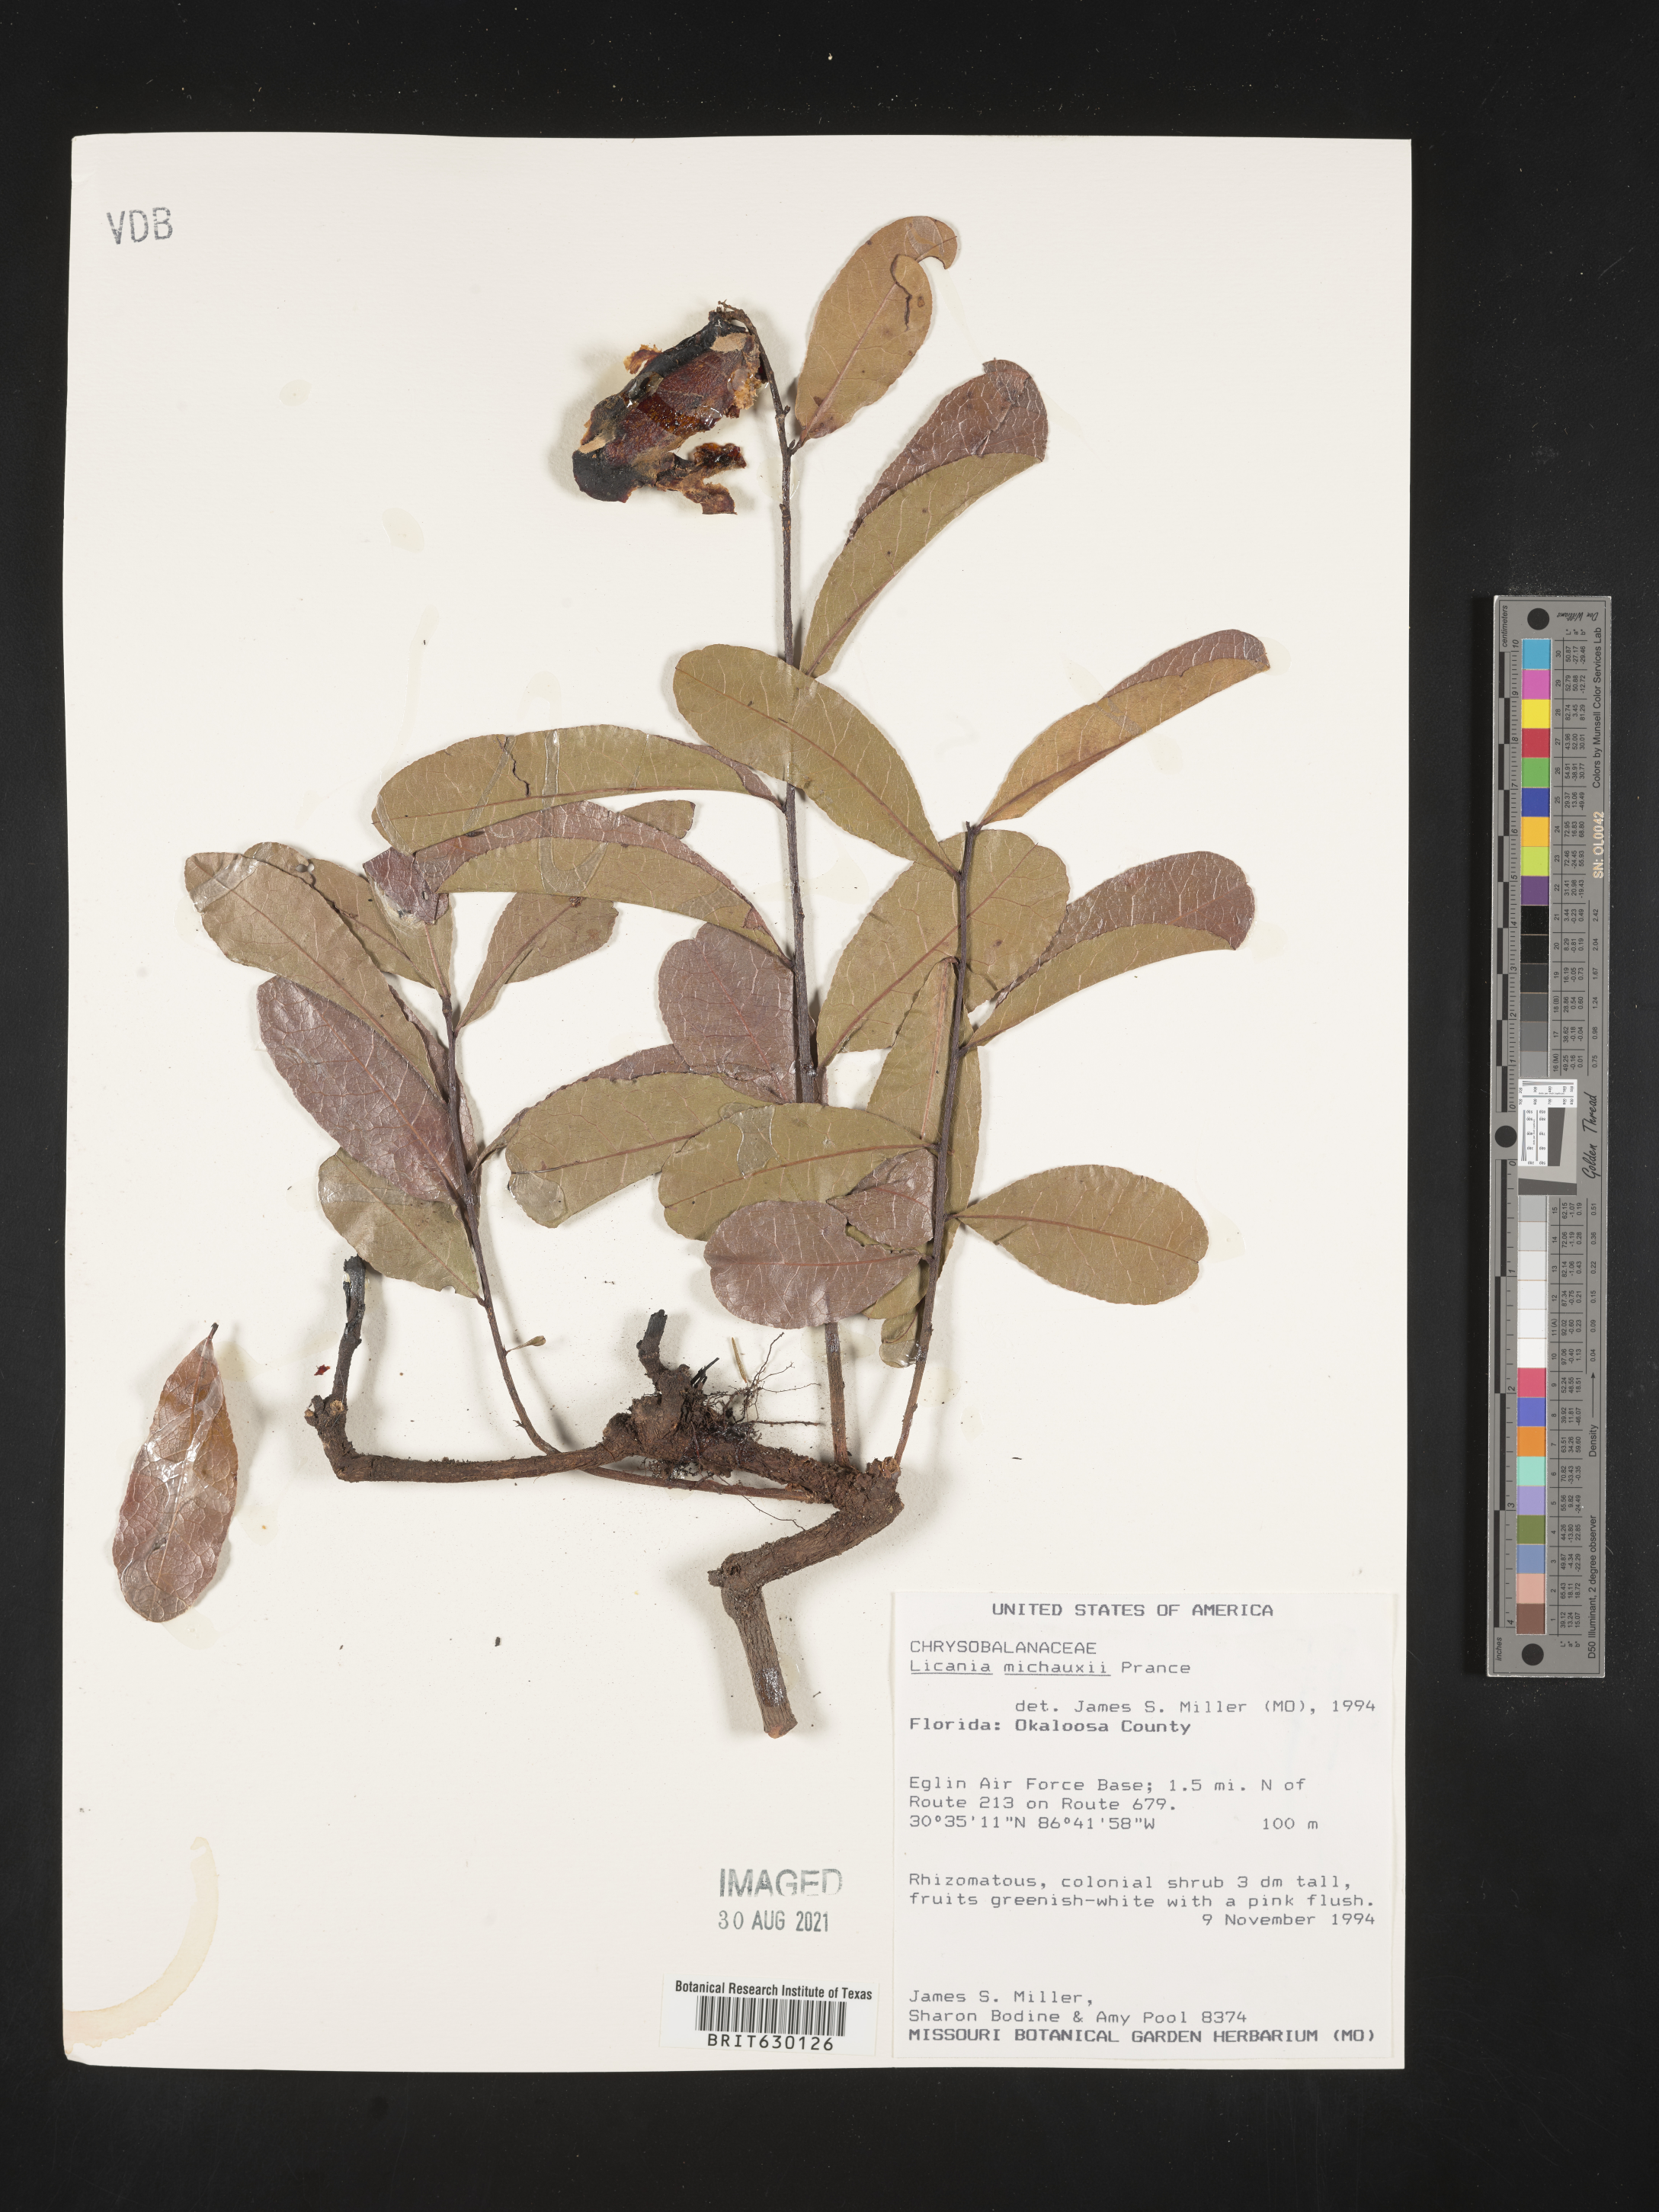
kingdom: Plantae
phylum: Tracheophyta
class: Magnoliopsida
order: Malpighiales
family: Chrysobalanaceae
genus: Geobalanus
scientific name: Geobalanus oblongifolius
